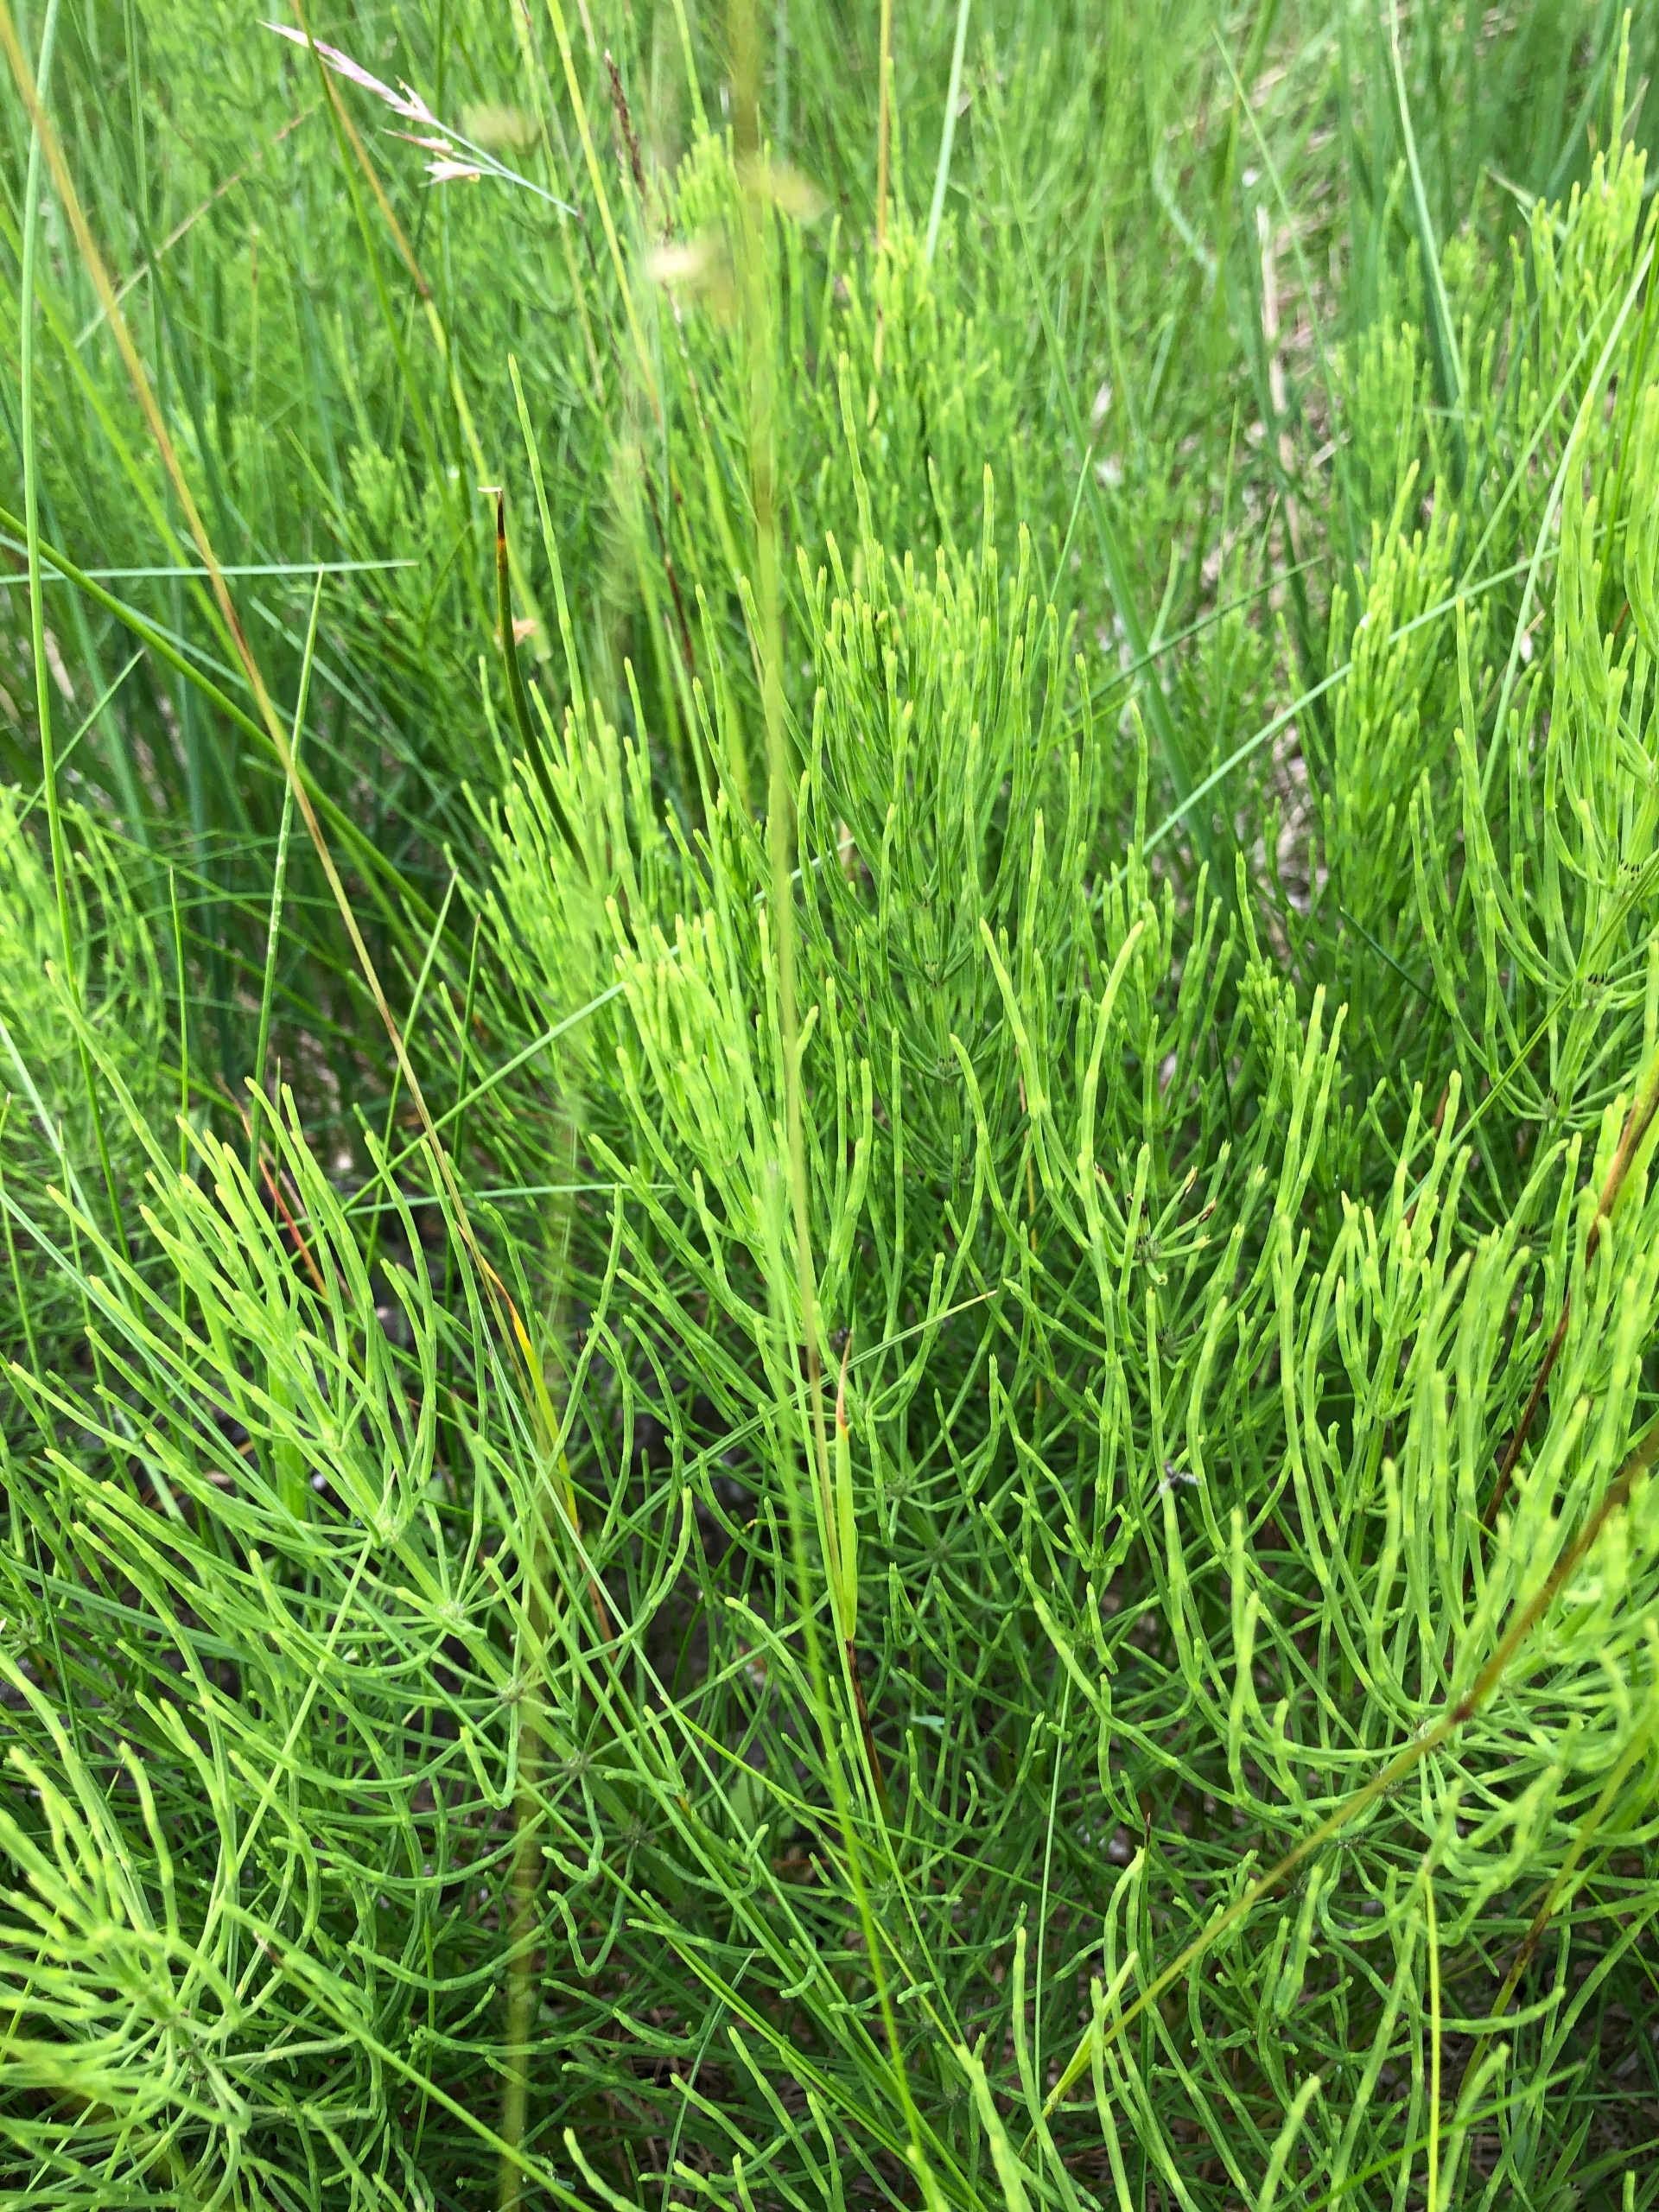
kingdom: Plantae
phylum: Tracheophyta
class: Polypodiopsida
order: Equisetales
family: Equisetaceae
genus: Equisetum
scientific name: Equisetum arvense
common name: Ager-padderok
